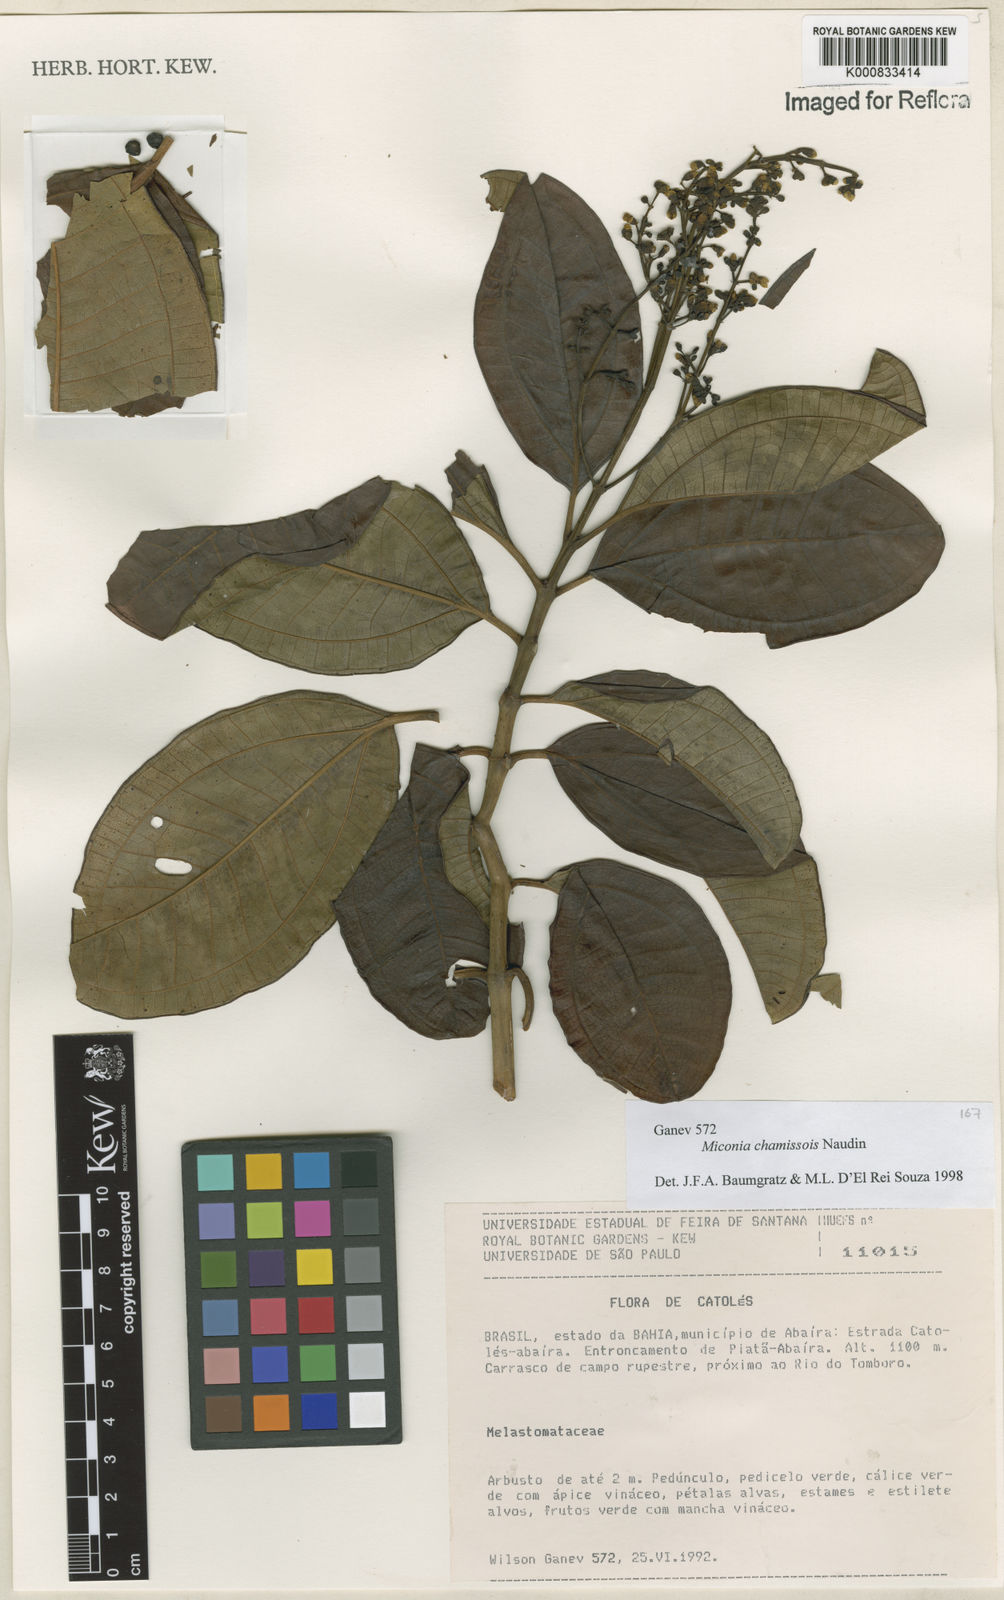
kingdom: Plantae
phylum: Tracheophyta
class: Magnoliopsida
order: Myrtales
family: Melastomataceae
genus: Miconia
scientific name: Miconia chamissois
